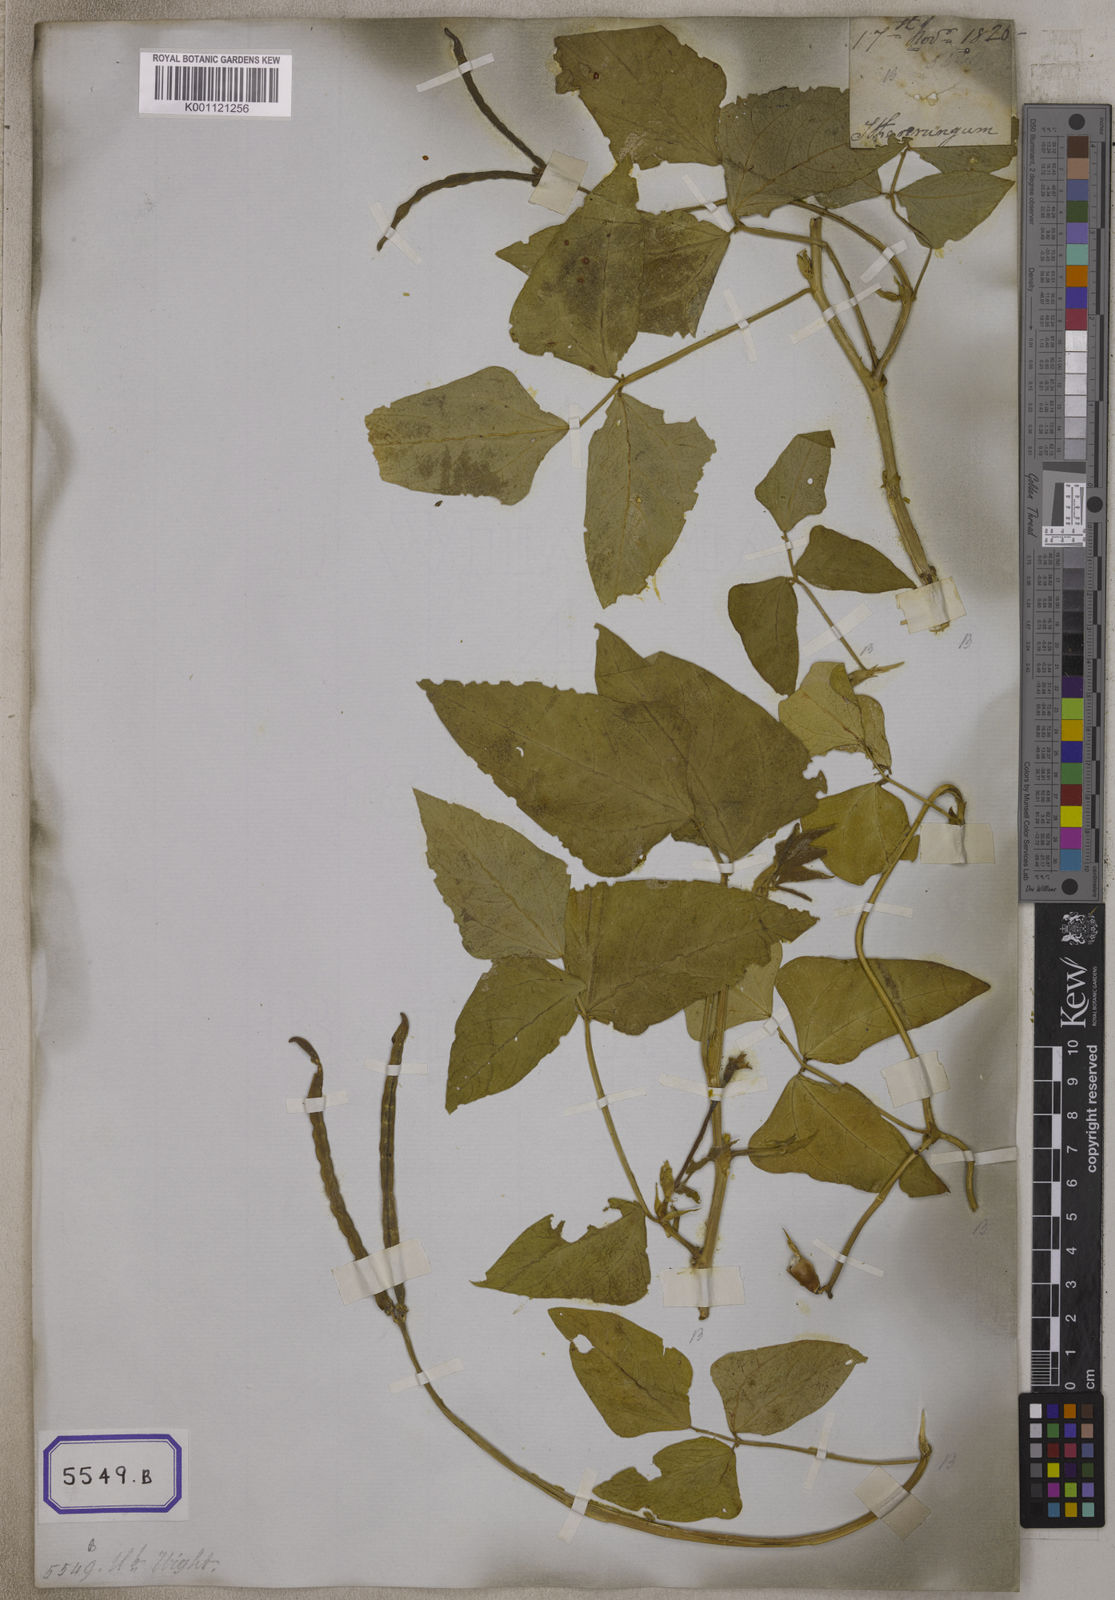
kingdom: Plantae
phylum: Tracheophyta
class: Magnoliopsida
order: Fabales
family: Fabaceae
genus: Vigna
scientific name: Vigna unguiculata
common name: Cowpea
